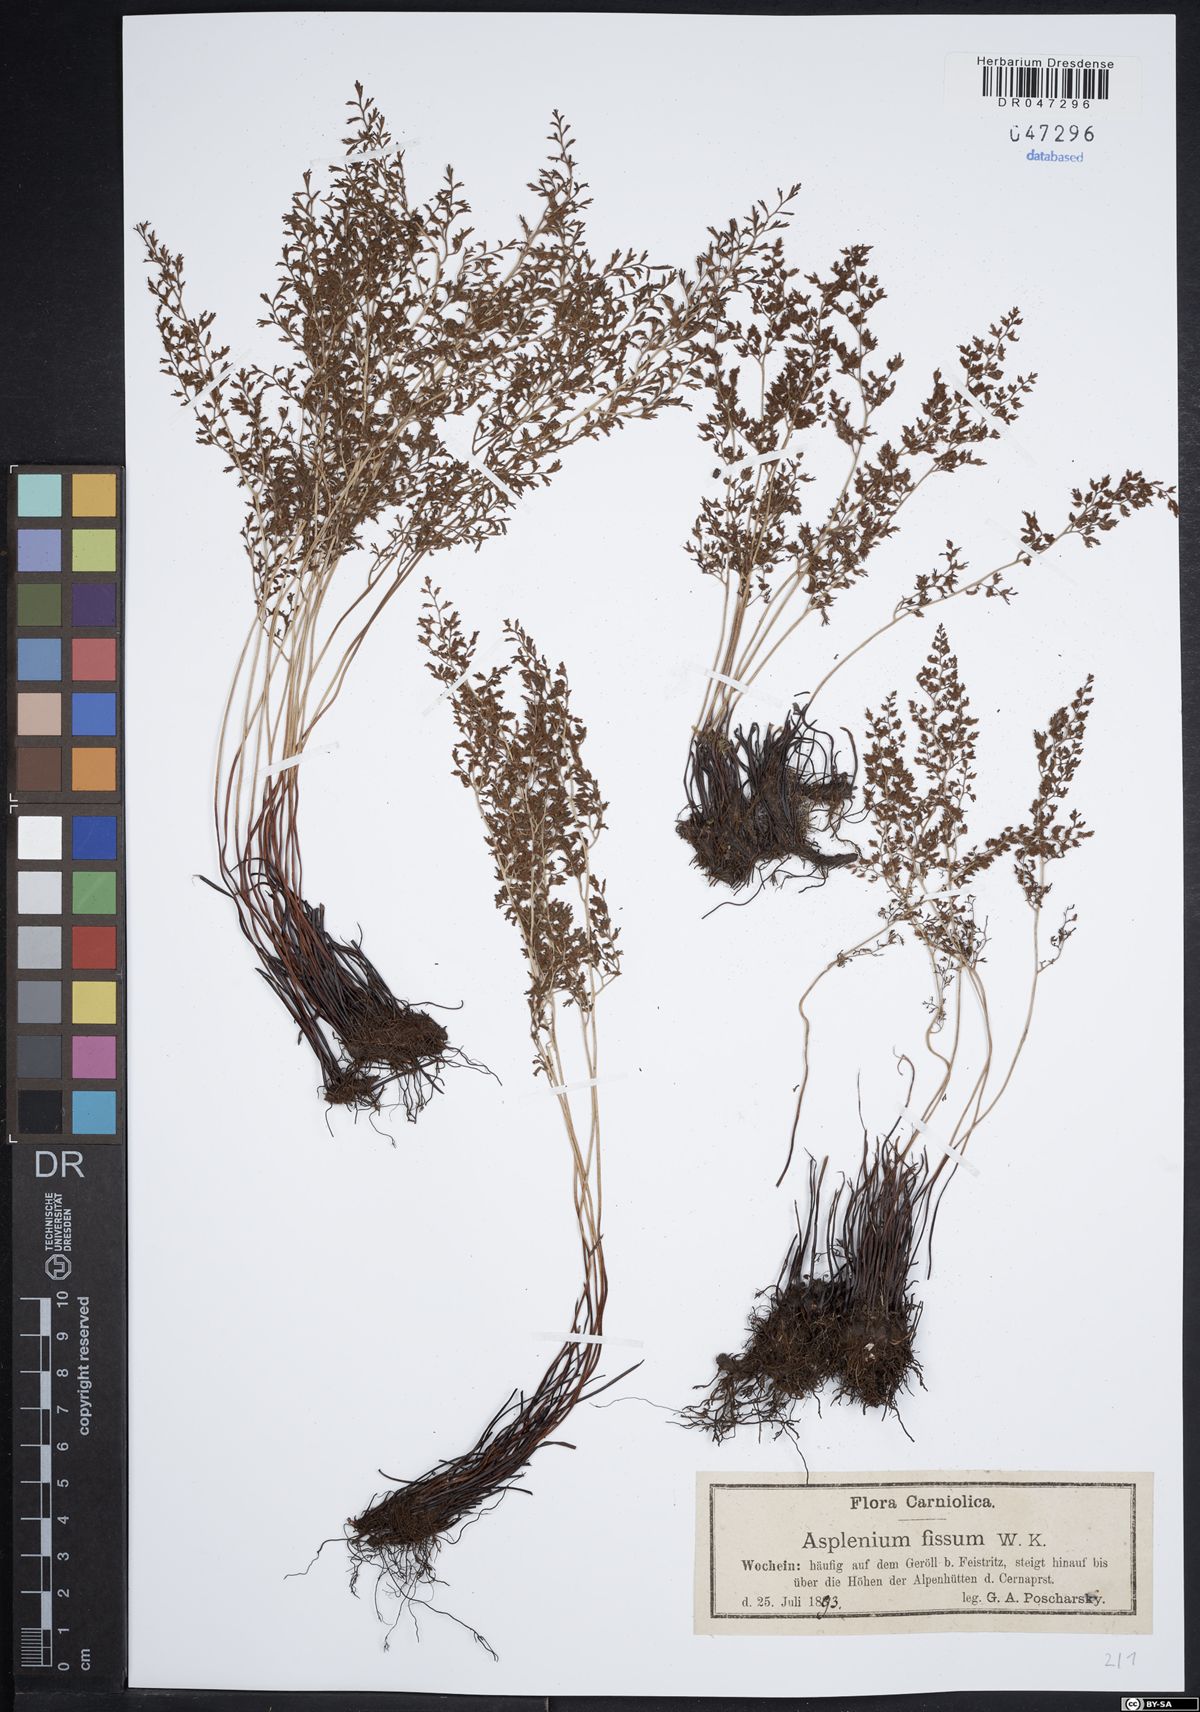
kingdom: Plantae
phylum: Tracheophyta
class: Polypodiopsida
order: Polypodiales
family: Aspleniaceae
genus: Asplenium
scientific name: Asplenium fissum
